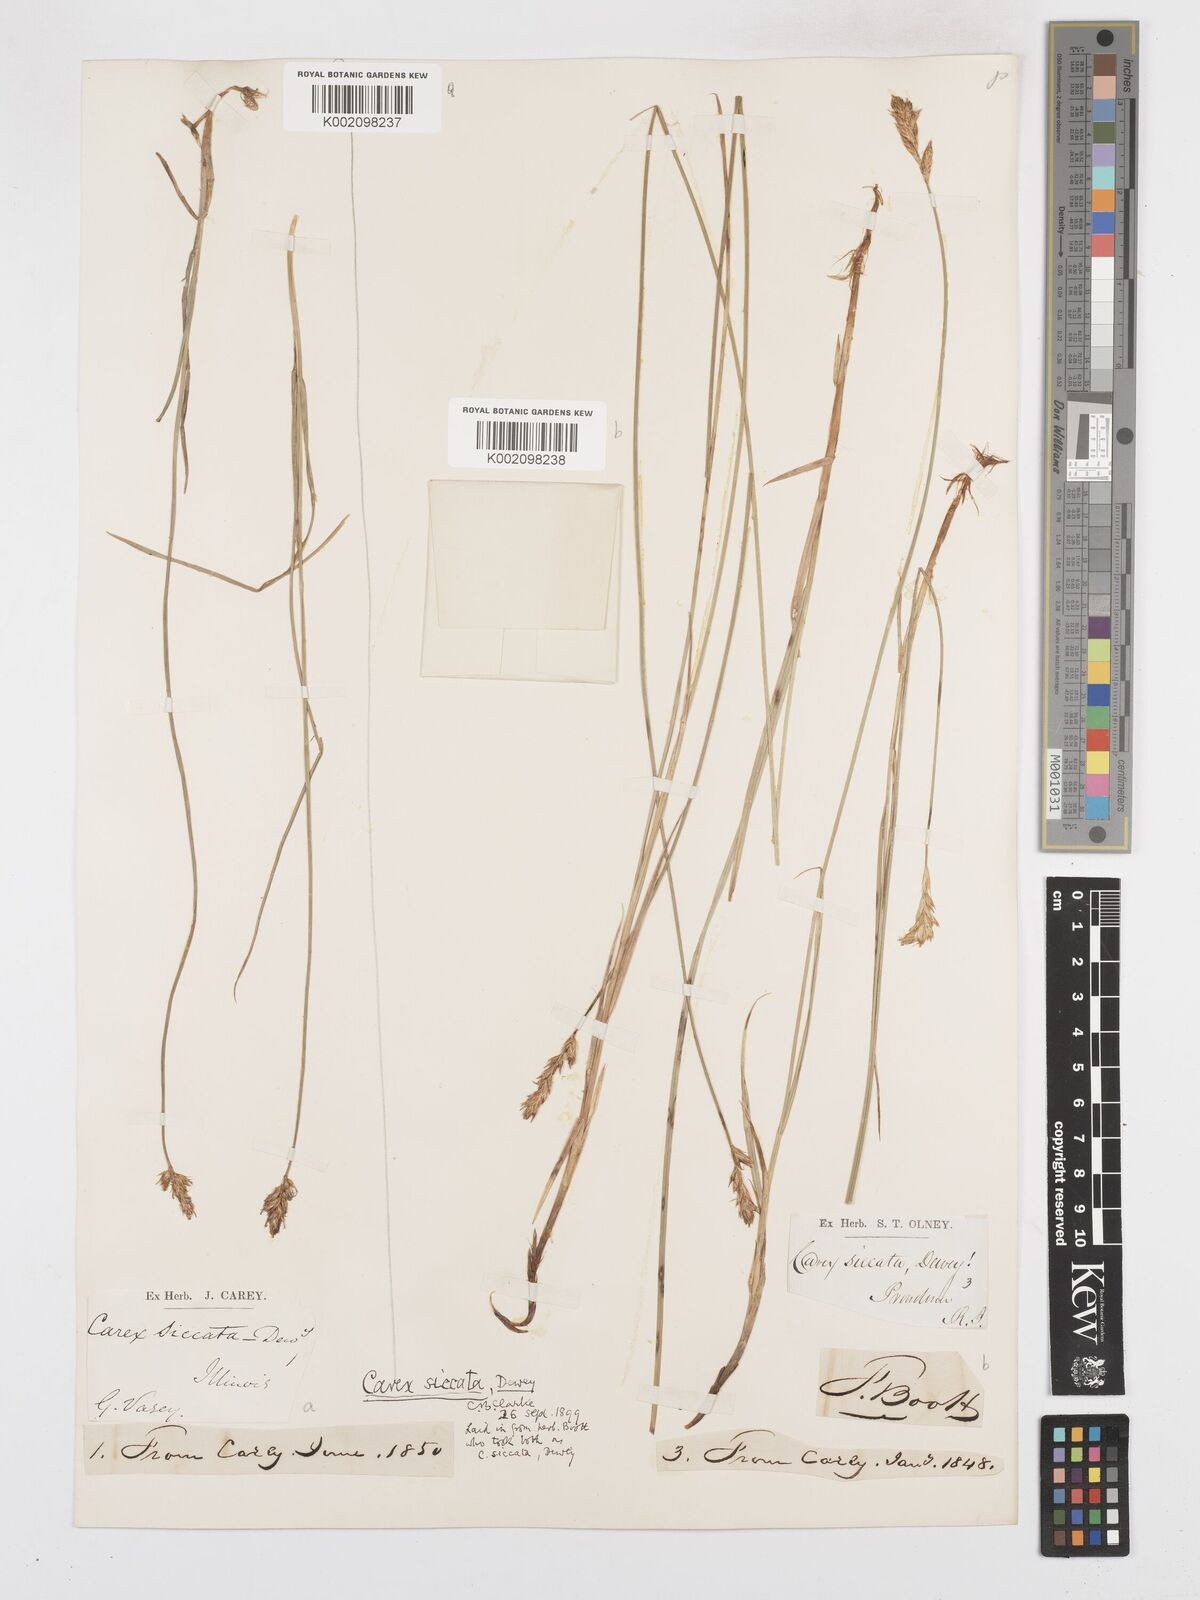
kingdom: Plantae
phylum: Tracheophyta
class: Liliopsida
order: Poales
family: Cyperaceae
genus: Carex
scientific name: Carex foenea
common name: Bronze sedge
